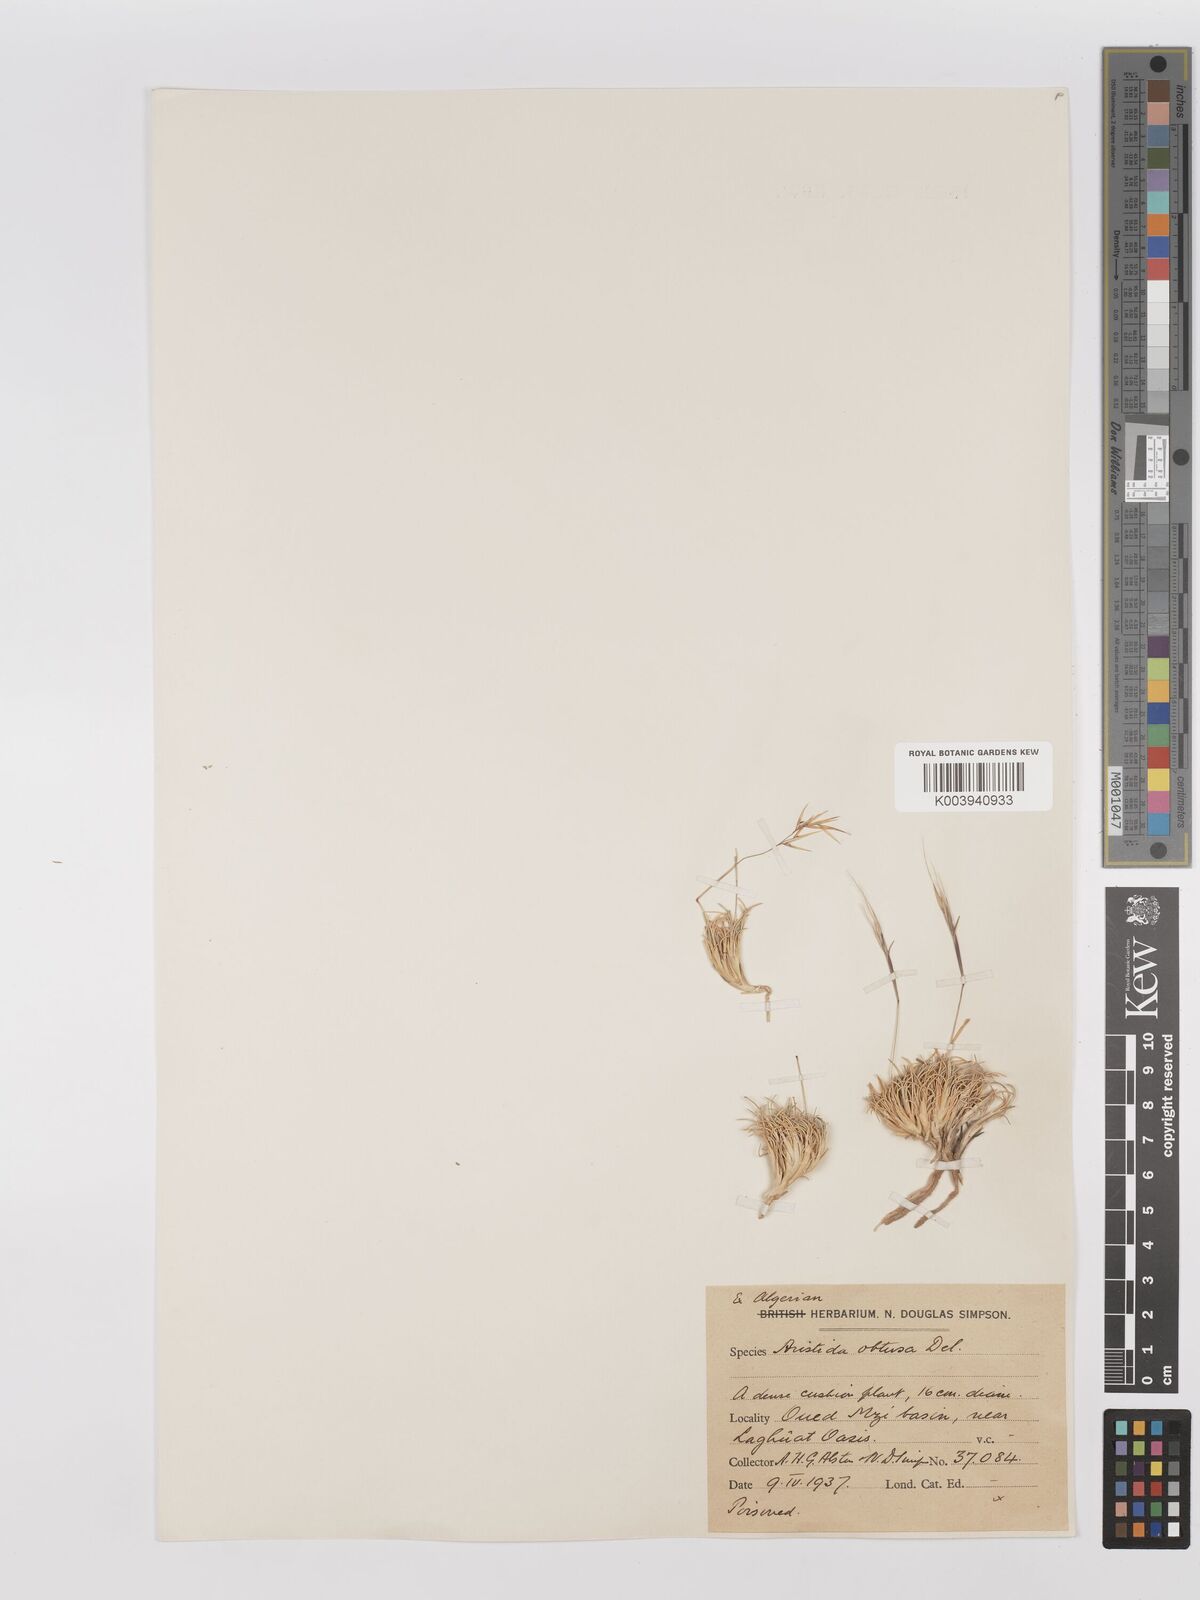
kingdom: Plantae
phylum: Tracheophyta
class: Liliopsida
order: Poales
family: Poaceae
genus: Stipagrostis
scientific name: Stipagrostis obtusa
